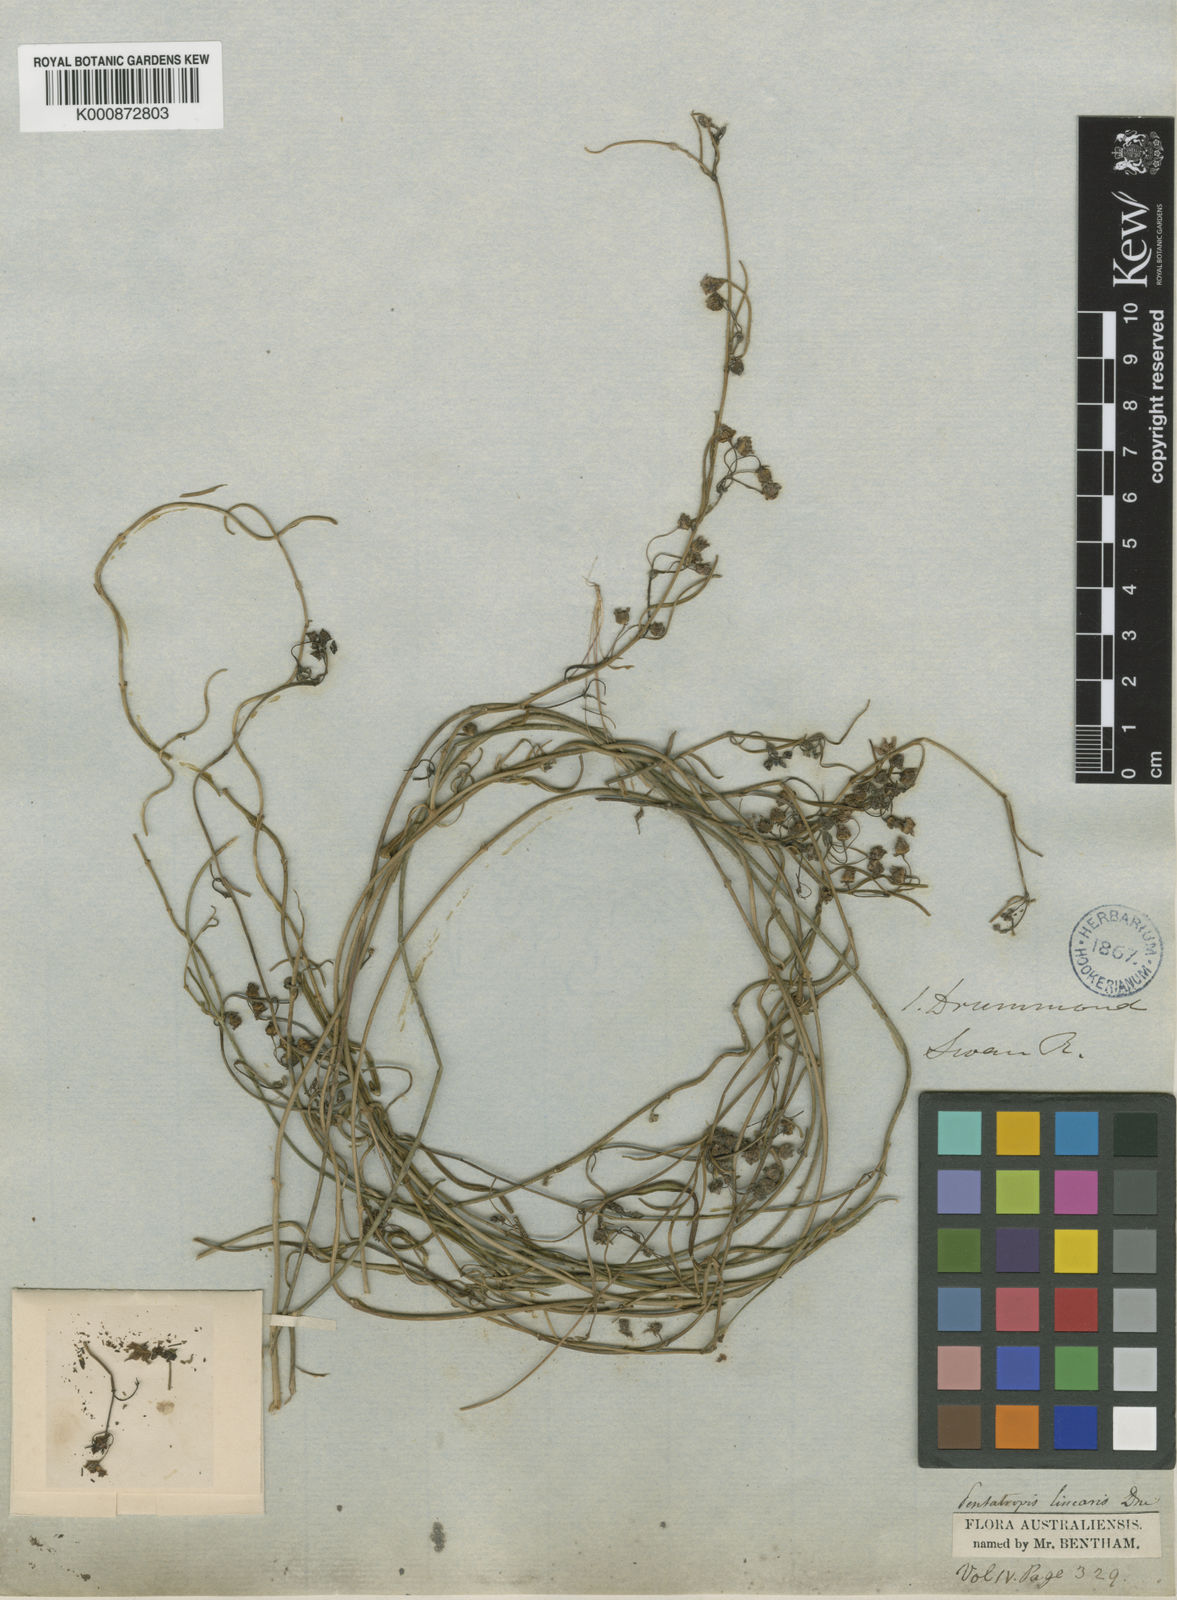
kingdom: Plantae
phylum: Tracheophyta
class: Magnoliopsida
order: Gentianales
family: Apocynaceae
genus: Vincetoxicum
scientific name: Vincetoxicum lineare
